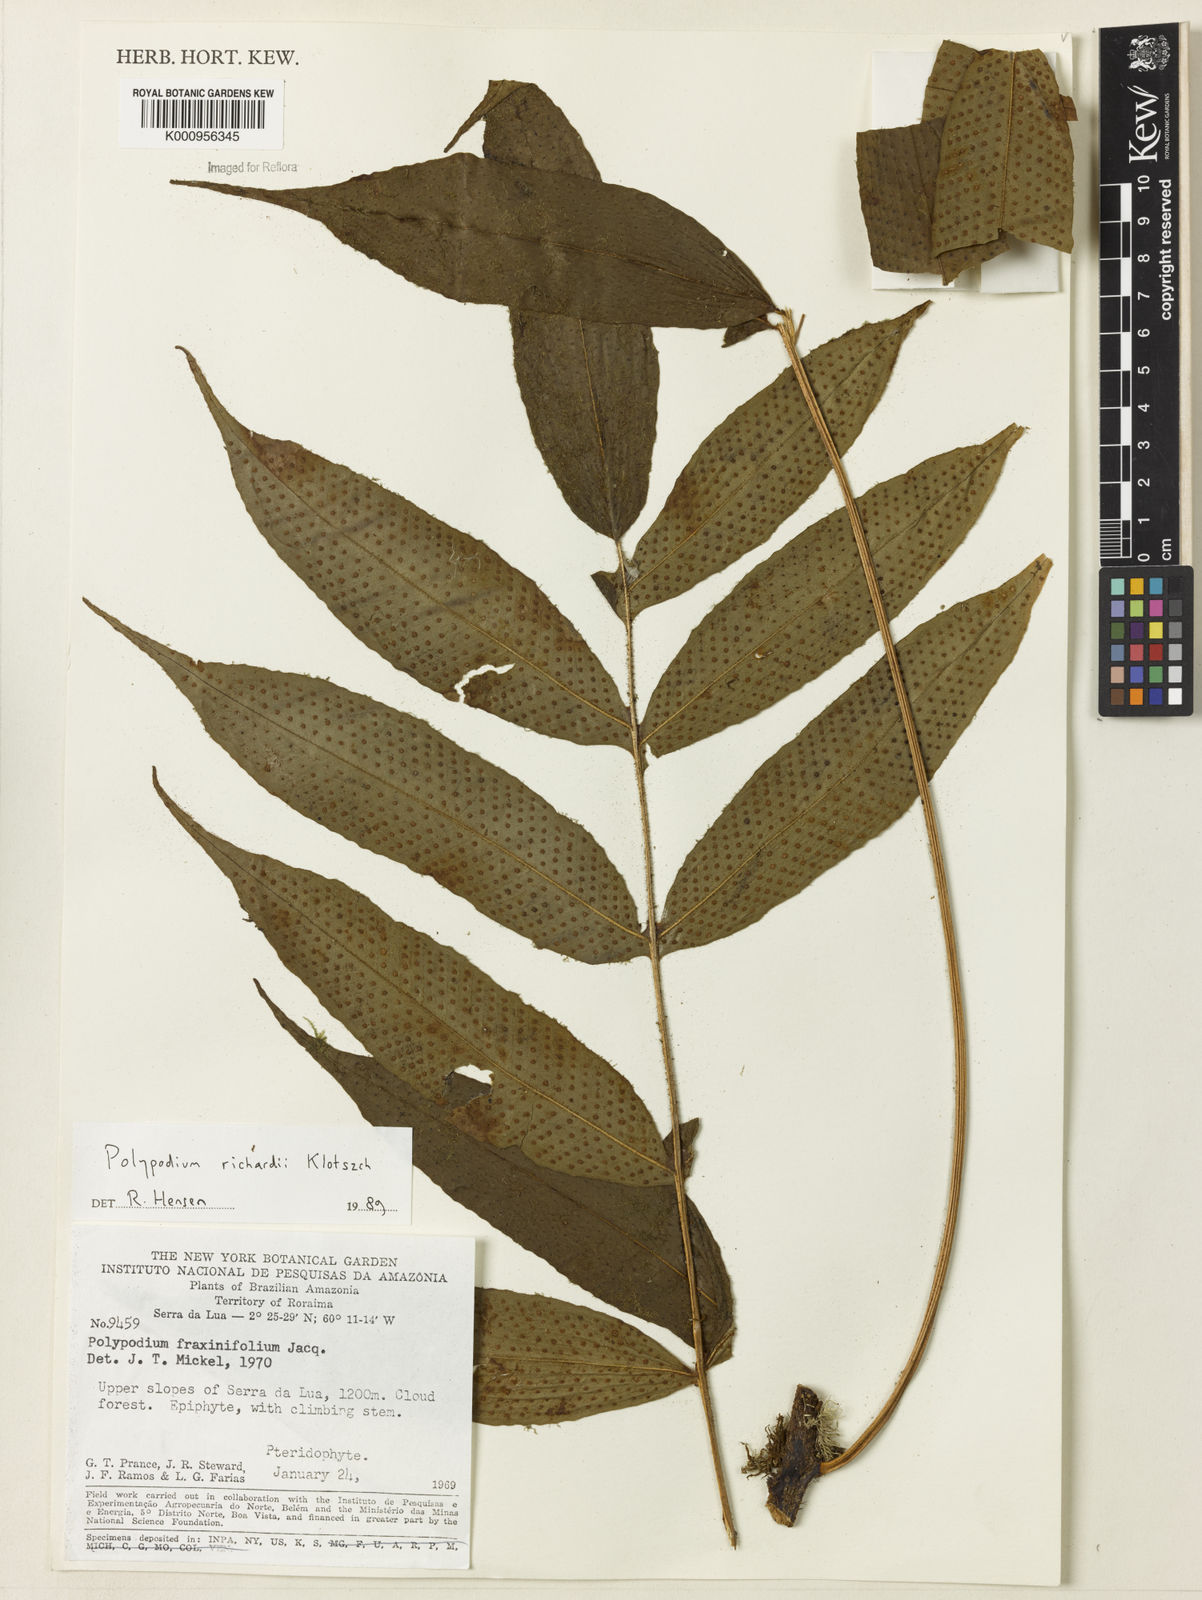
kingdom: Plantae
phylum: Tracheophyta
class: Polypodiopsida
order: Polypodiales
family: Polypodiaceae
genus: Serpocaulon
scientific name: Serpocaulon richardii
